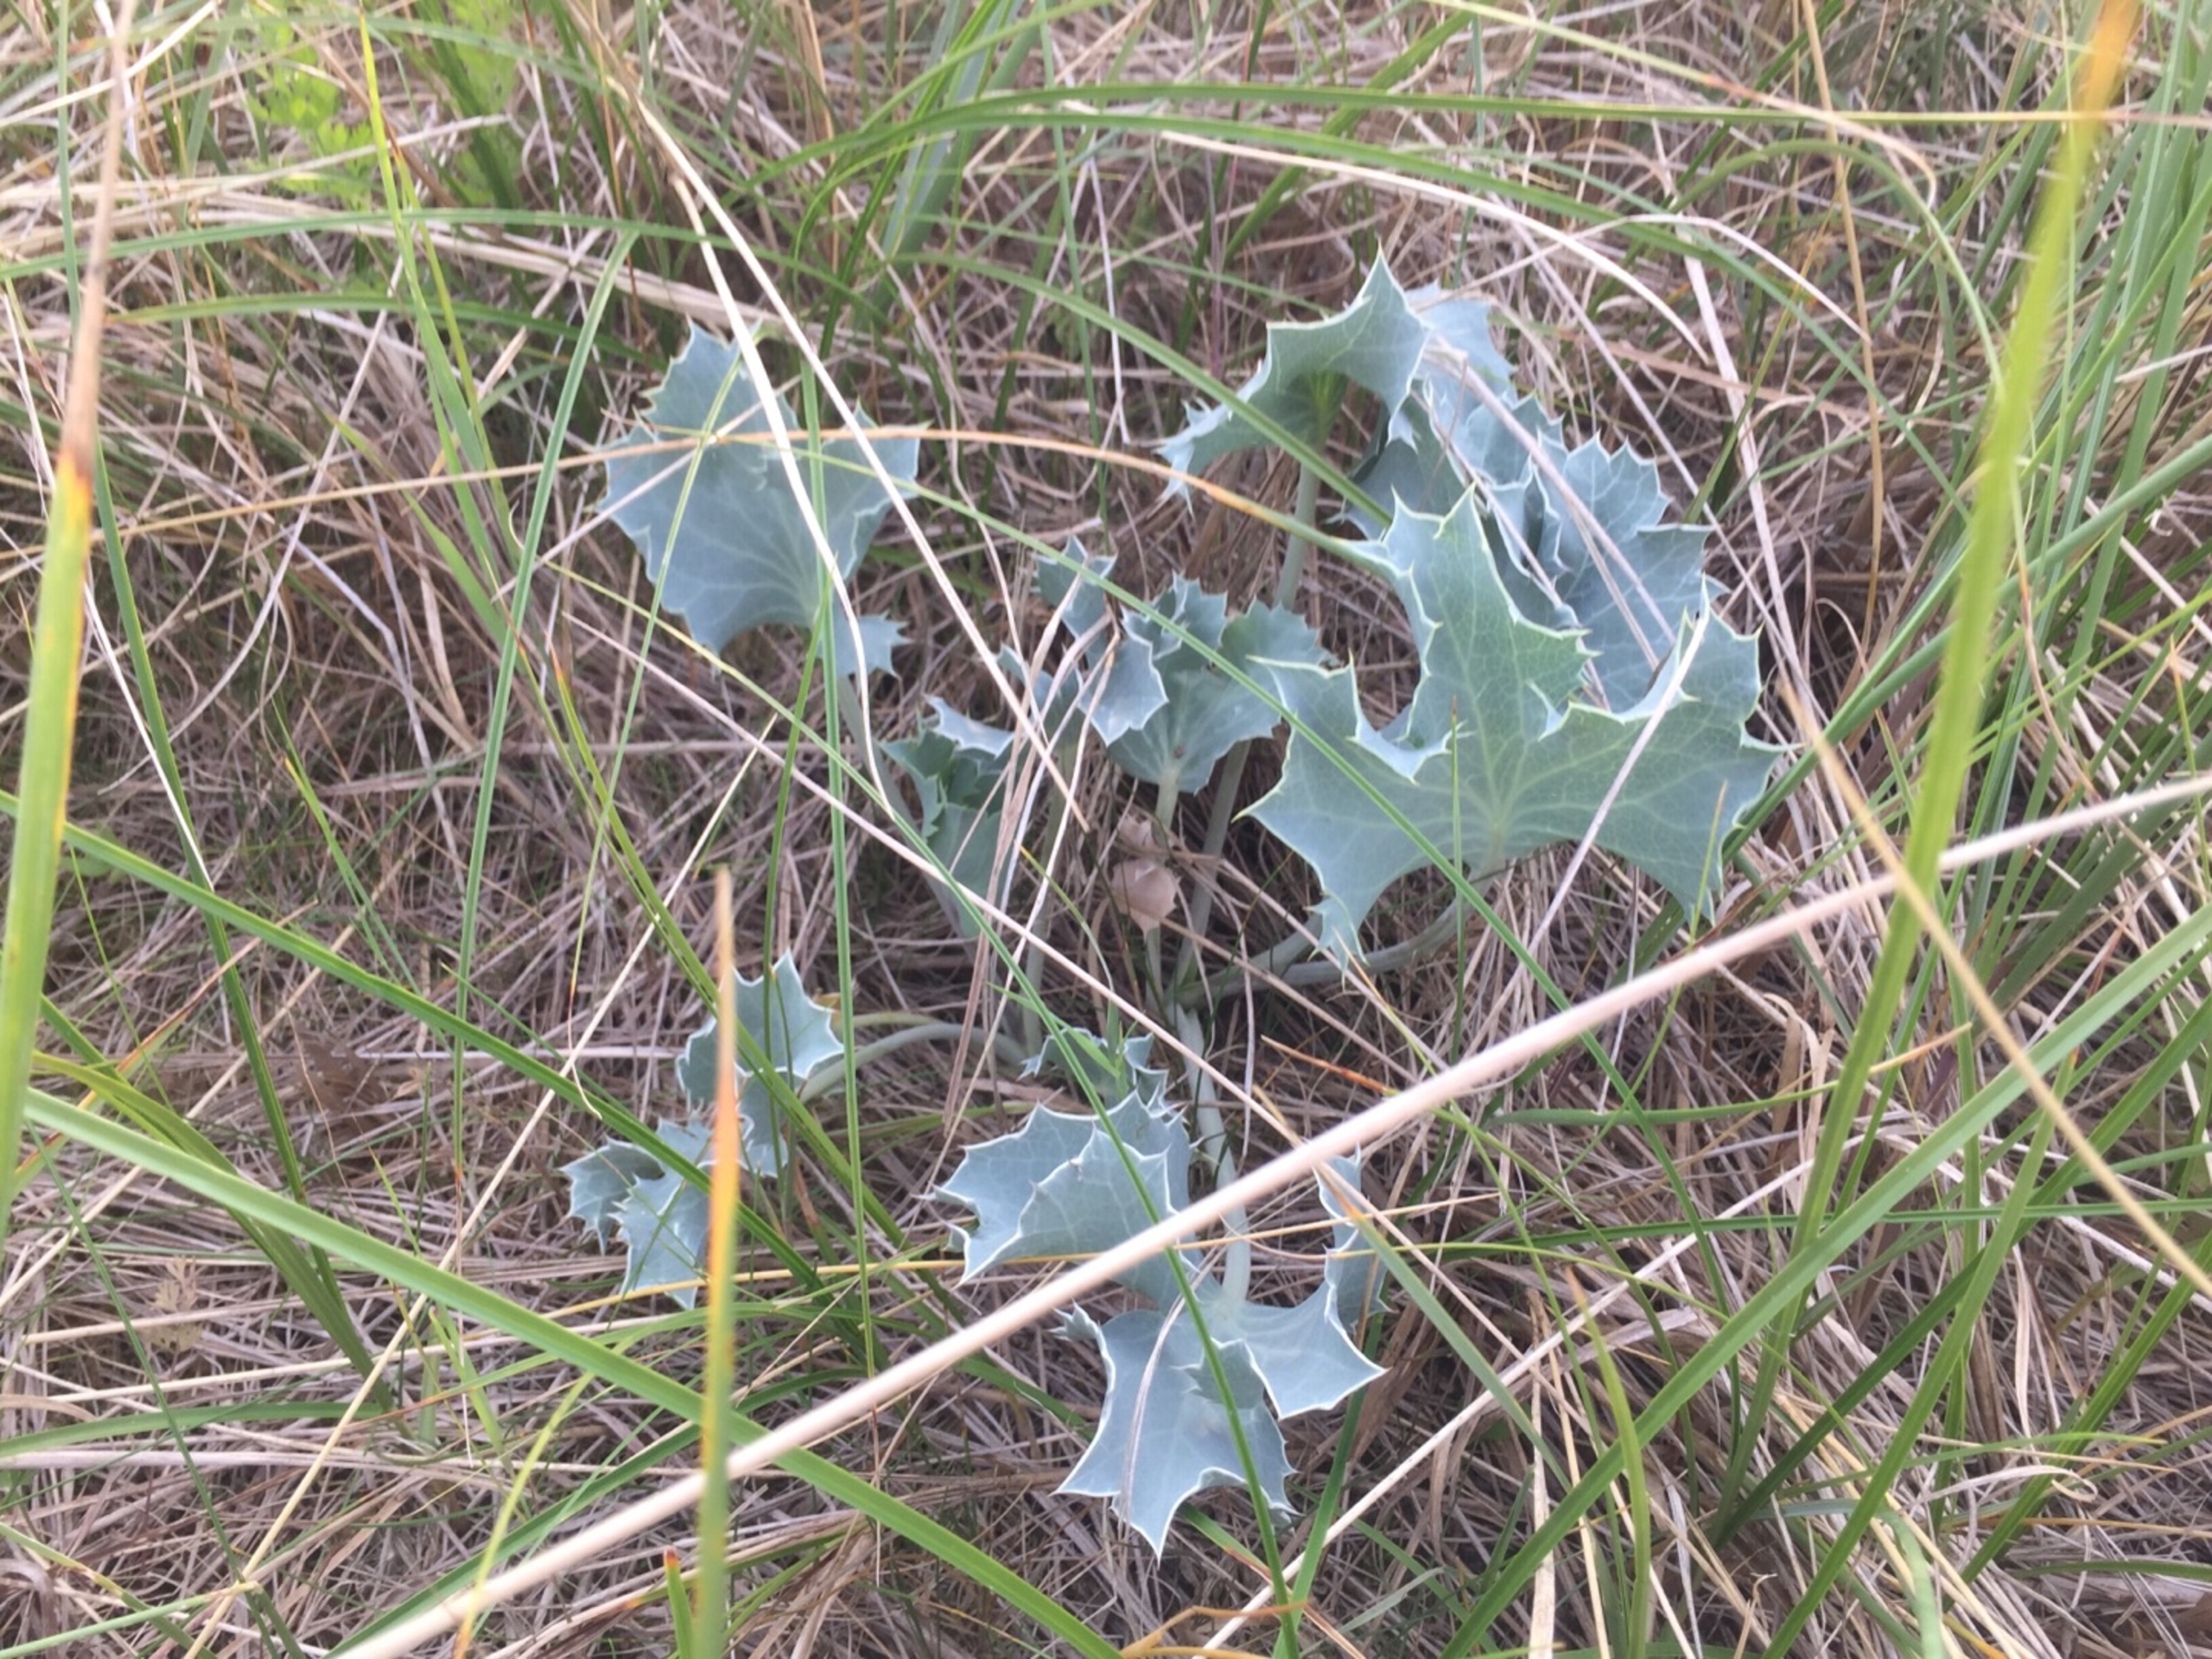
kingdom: Plantae
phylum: Tracheophyta
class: Magnoliopsida
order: Apiales
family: Apiaceae
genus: Eryngium
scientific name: Eryngium maritimum
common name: Strand-mandstro
